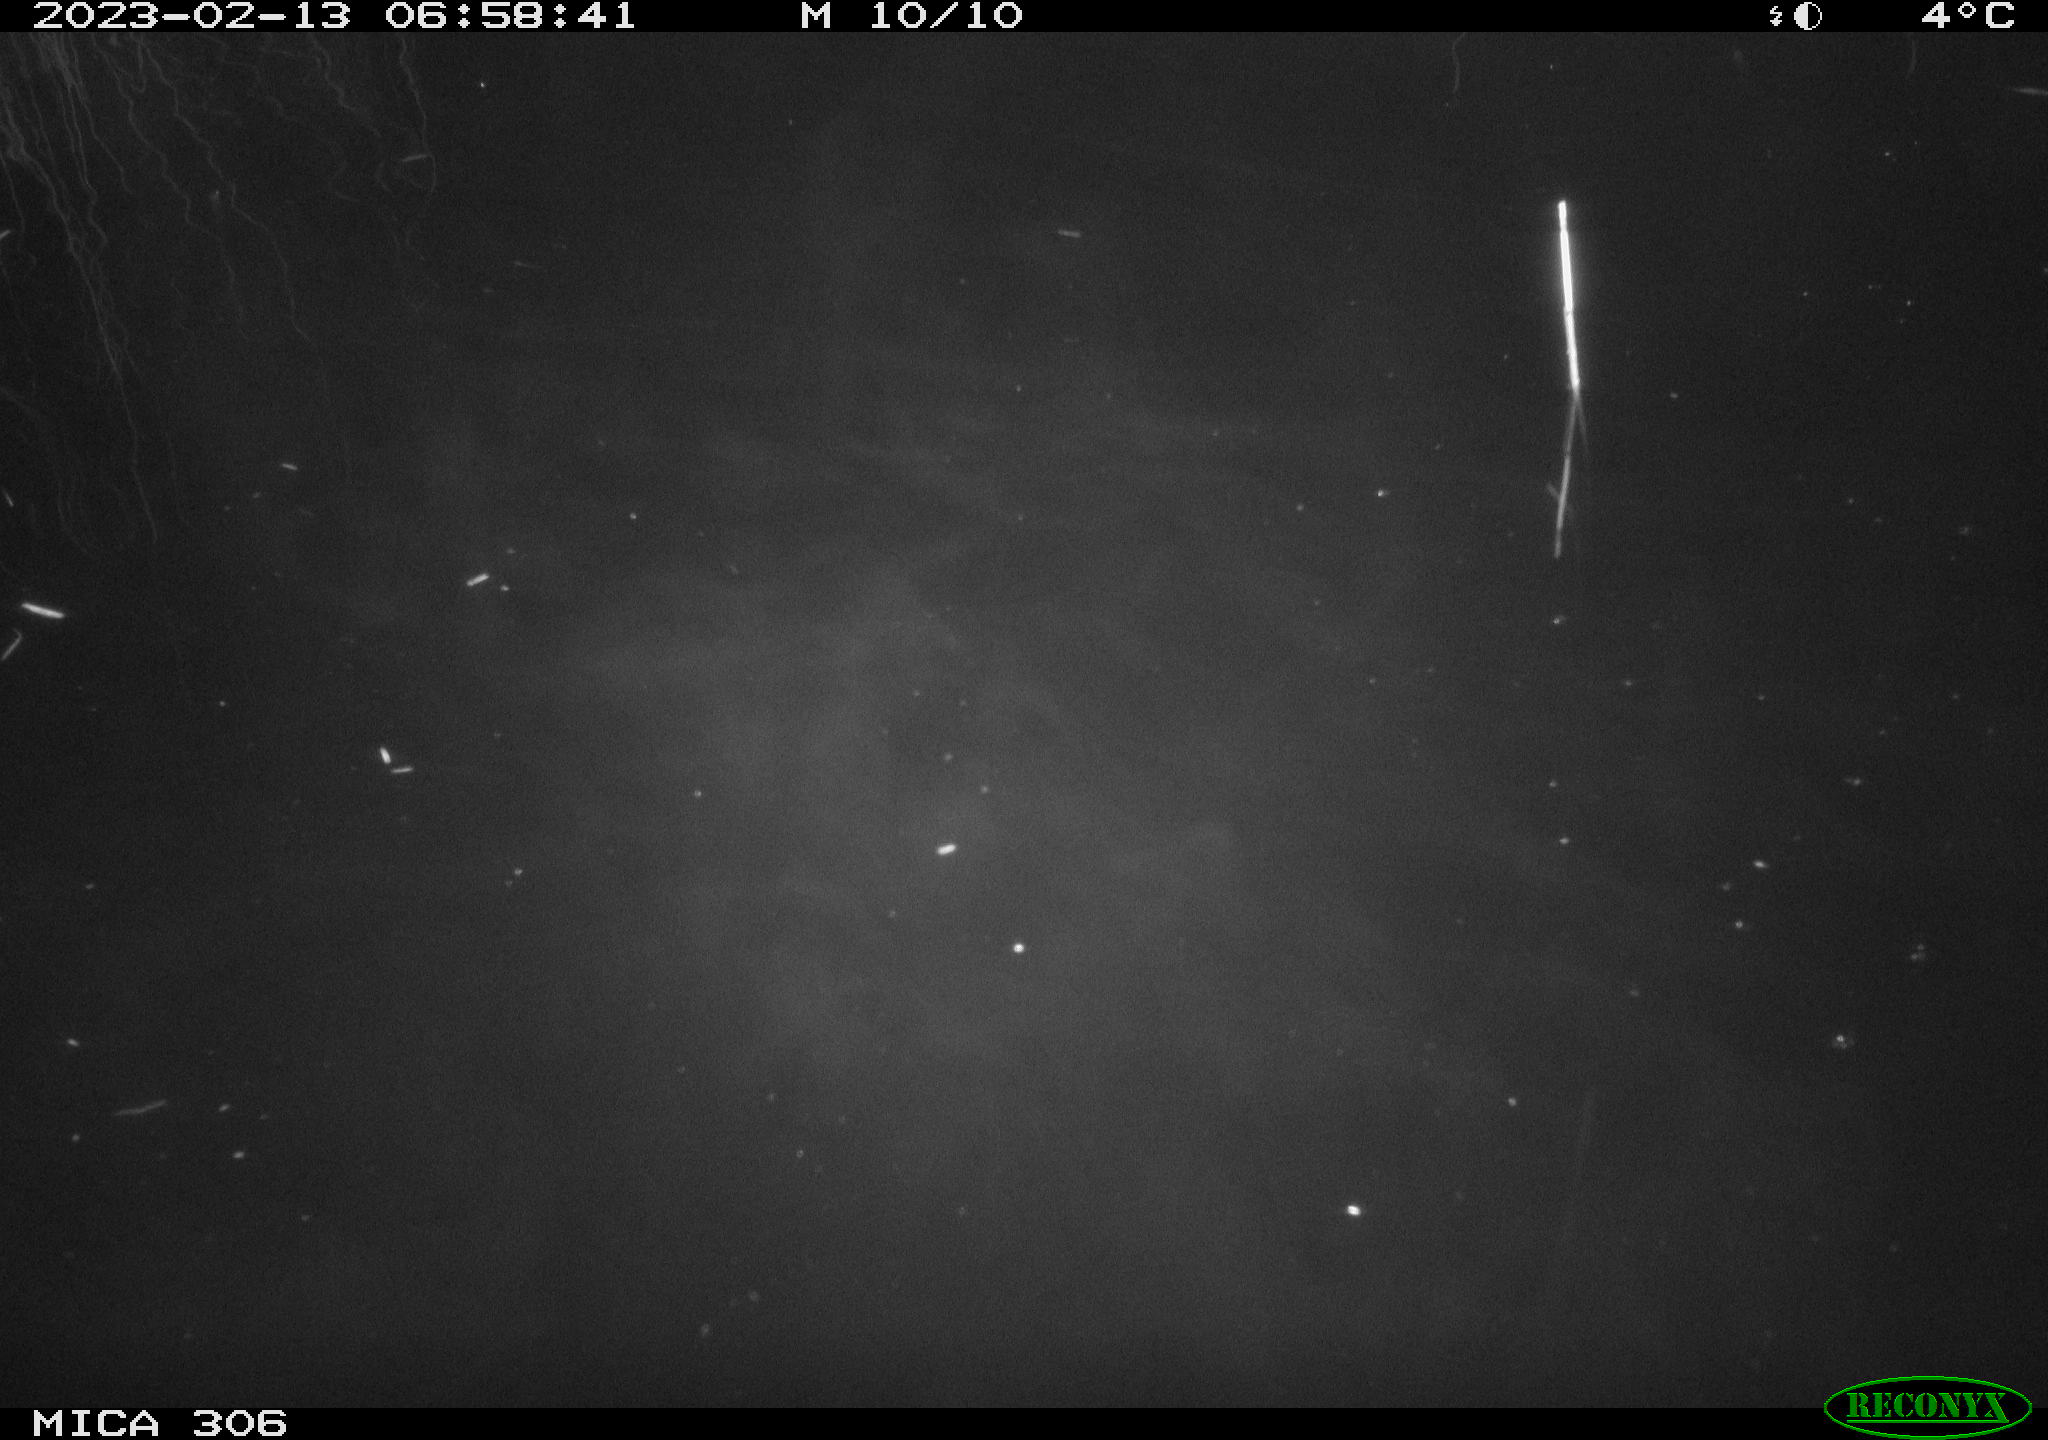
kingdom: Animalia
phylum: Chordata
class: Mammalia
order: Rodentia
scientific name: Rodentia
